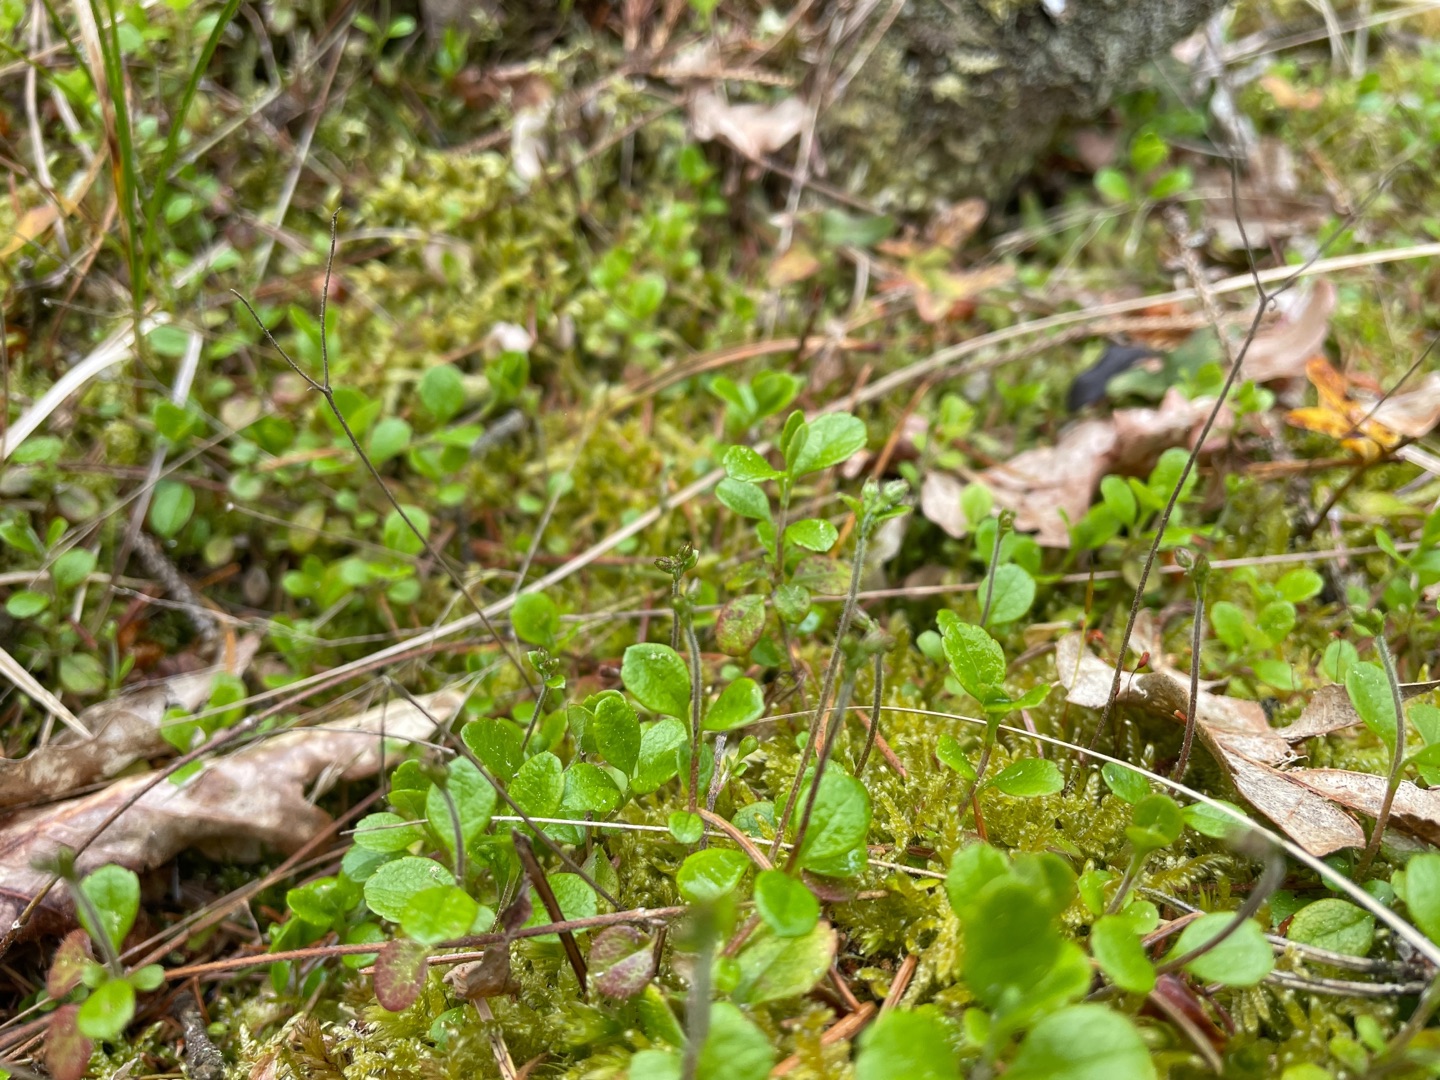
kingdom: Plantae
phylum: Tracheophyta
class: Magnoliopsida
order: Dipsacales
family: Caprifoliaceae
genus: Linnaea
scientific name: Linnaea borealis
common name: Linnæa
